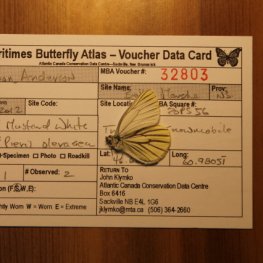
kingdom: Animalia
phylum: Arthropoda
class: Insecta
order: Lepidoptera
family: Pieridae
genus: Pieris
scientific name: Pieris oleracea
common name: Mustard White
